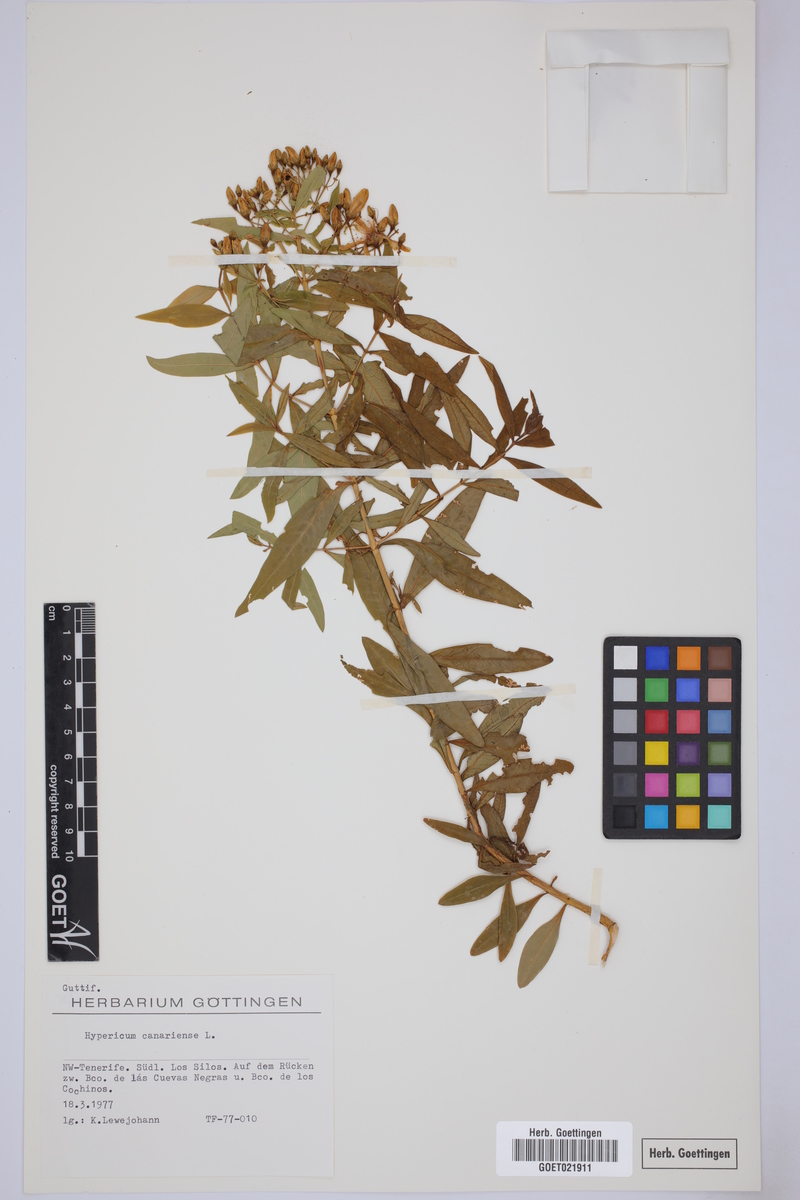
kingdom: Plantae
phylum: Tracheophyta
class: Magnoliopsida
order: Malpighiales
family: Hypericaceae
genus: Hypericum
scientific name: Hypericum canariense
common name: Canary island st. johnswort
